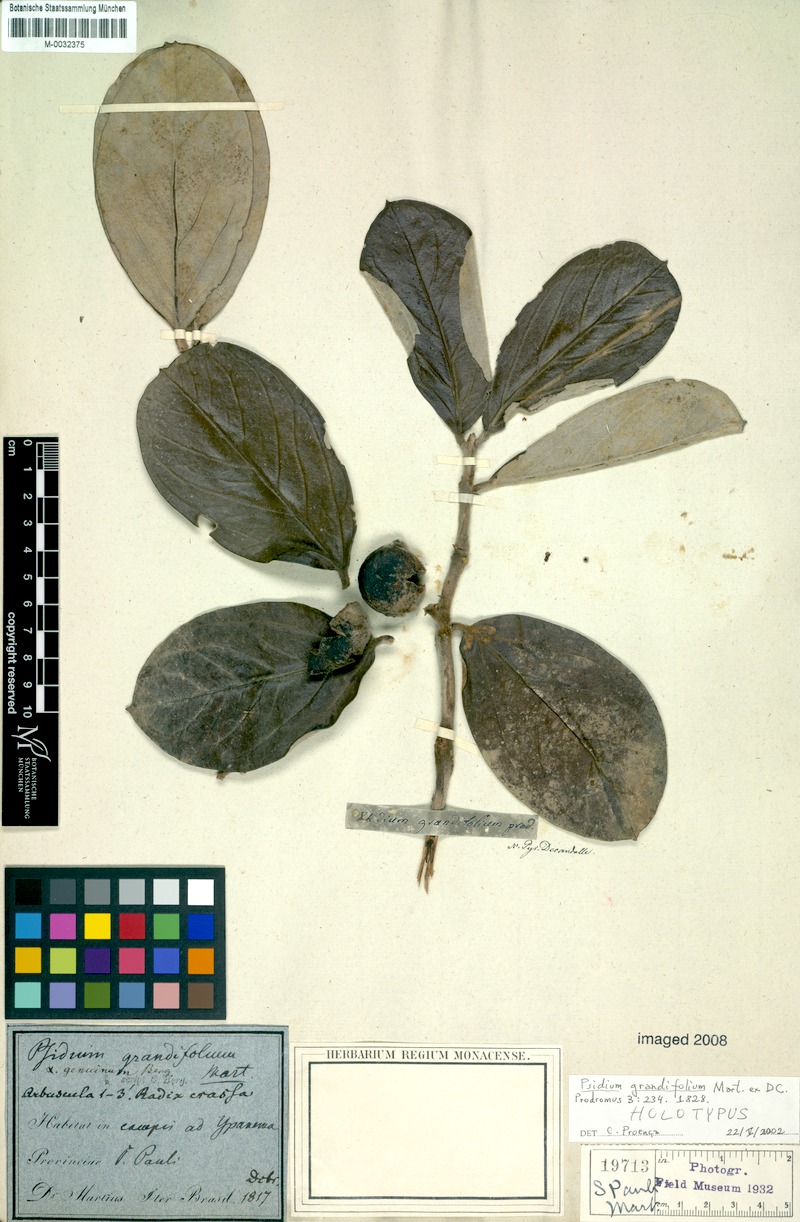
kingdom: Plantae
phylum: Tracheophyta
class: Magnoliopsida
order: Myrtales
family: Myrtaceae
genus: Psidium
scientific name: Psidium grandifolium
